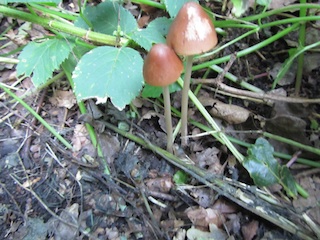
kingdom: Fungi
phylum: Basidiomycota
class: Agaricomycetes
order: Agaricales
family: Psathyrellaceae
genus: Parasola
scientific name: Parasola conopilea
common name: kegle-hjulhat
